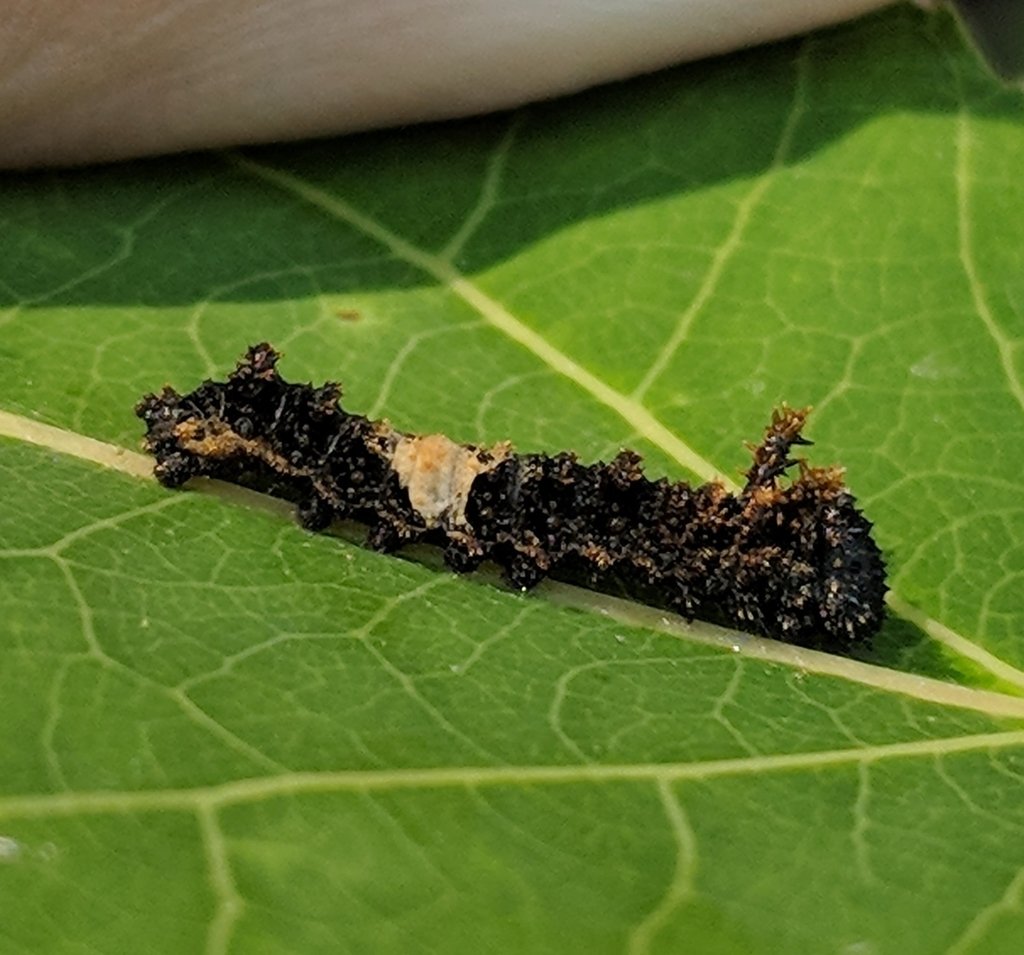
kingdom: Animalia
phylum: Arthropoda
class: Insecta
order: Lepidoptera
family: Nymphalidae
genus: Limenitis
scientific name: Limenitis arthemis
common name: Red-spotted Admiral
